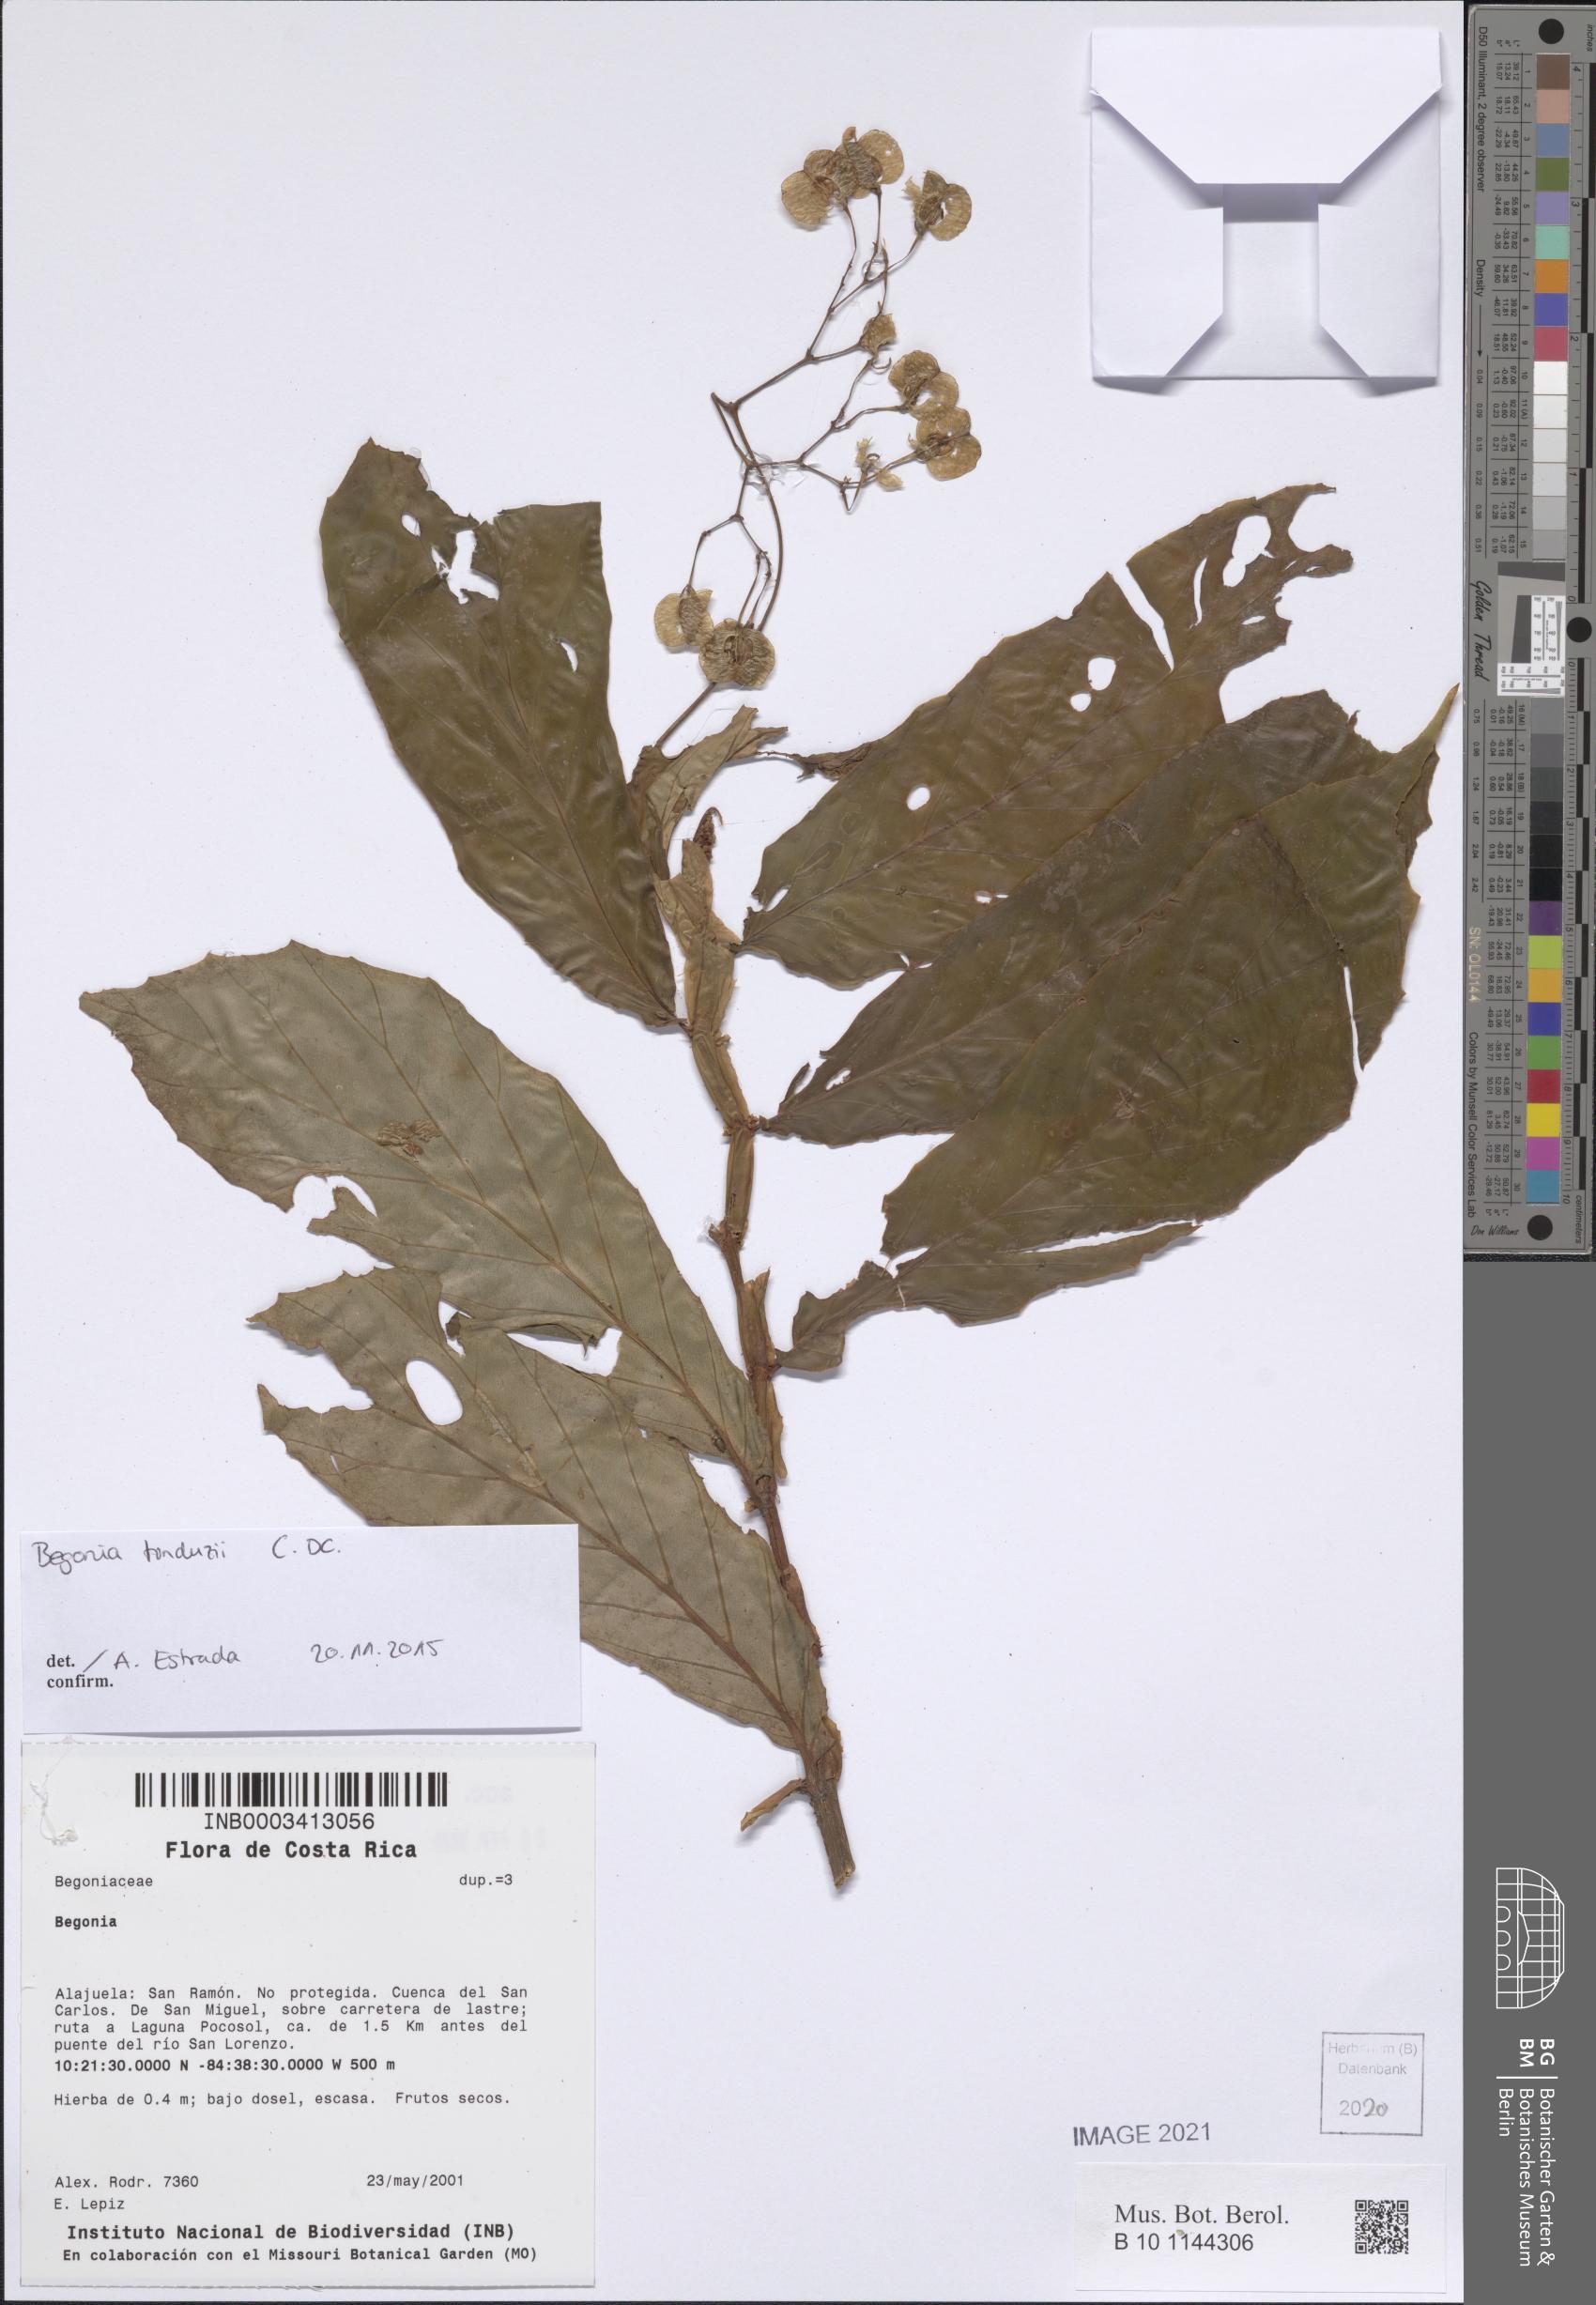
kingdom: Plantae
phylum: Tracheophyta
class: Magnoliopsida
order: Cucurbitales
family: Begoniaceae
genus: Begonia
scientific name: Begonia
